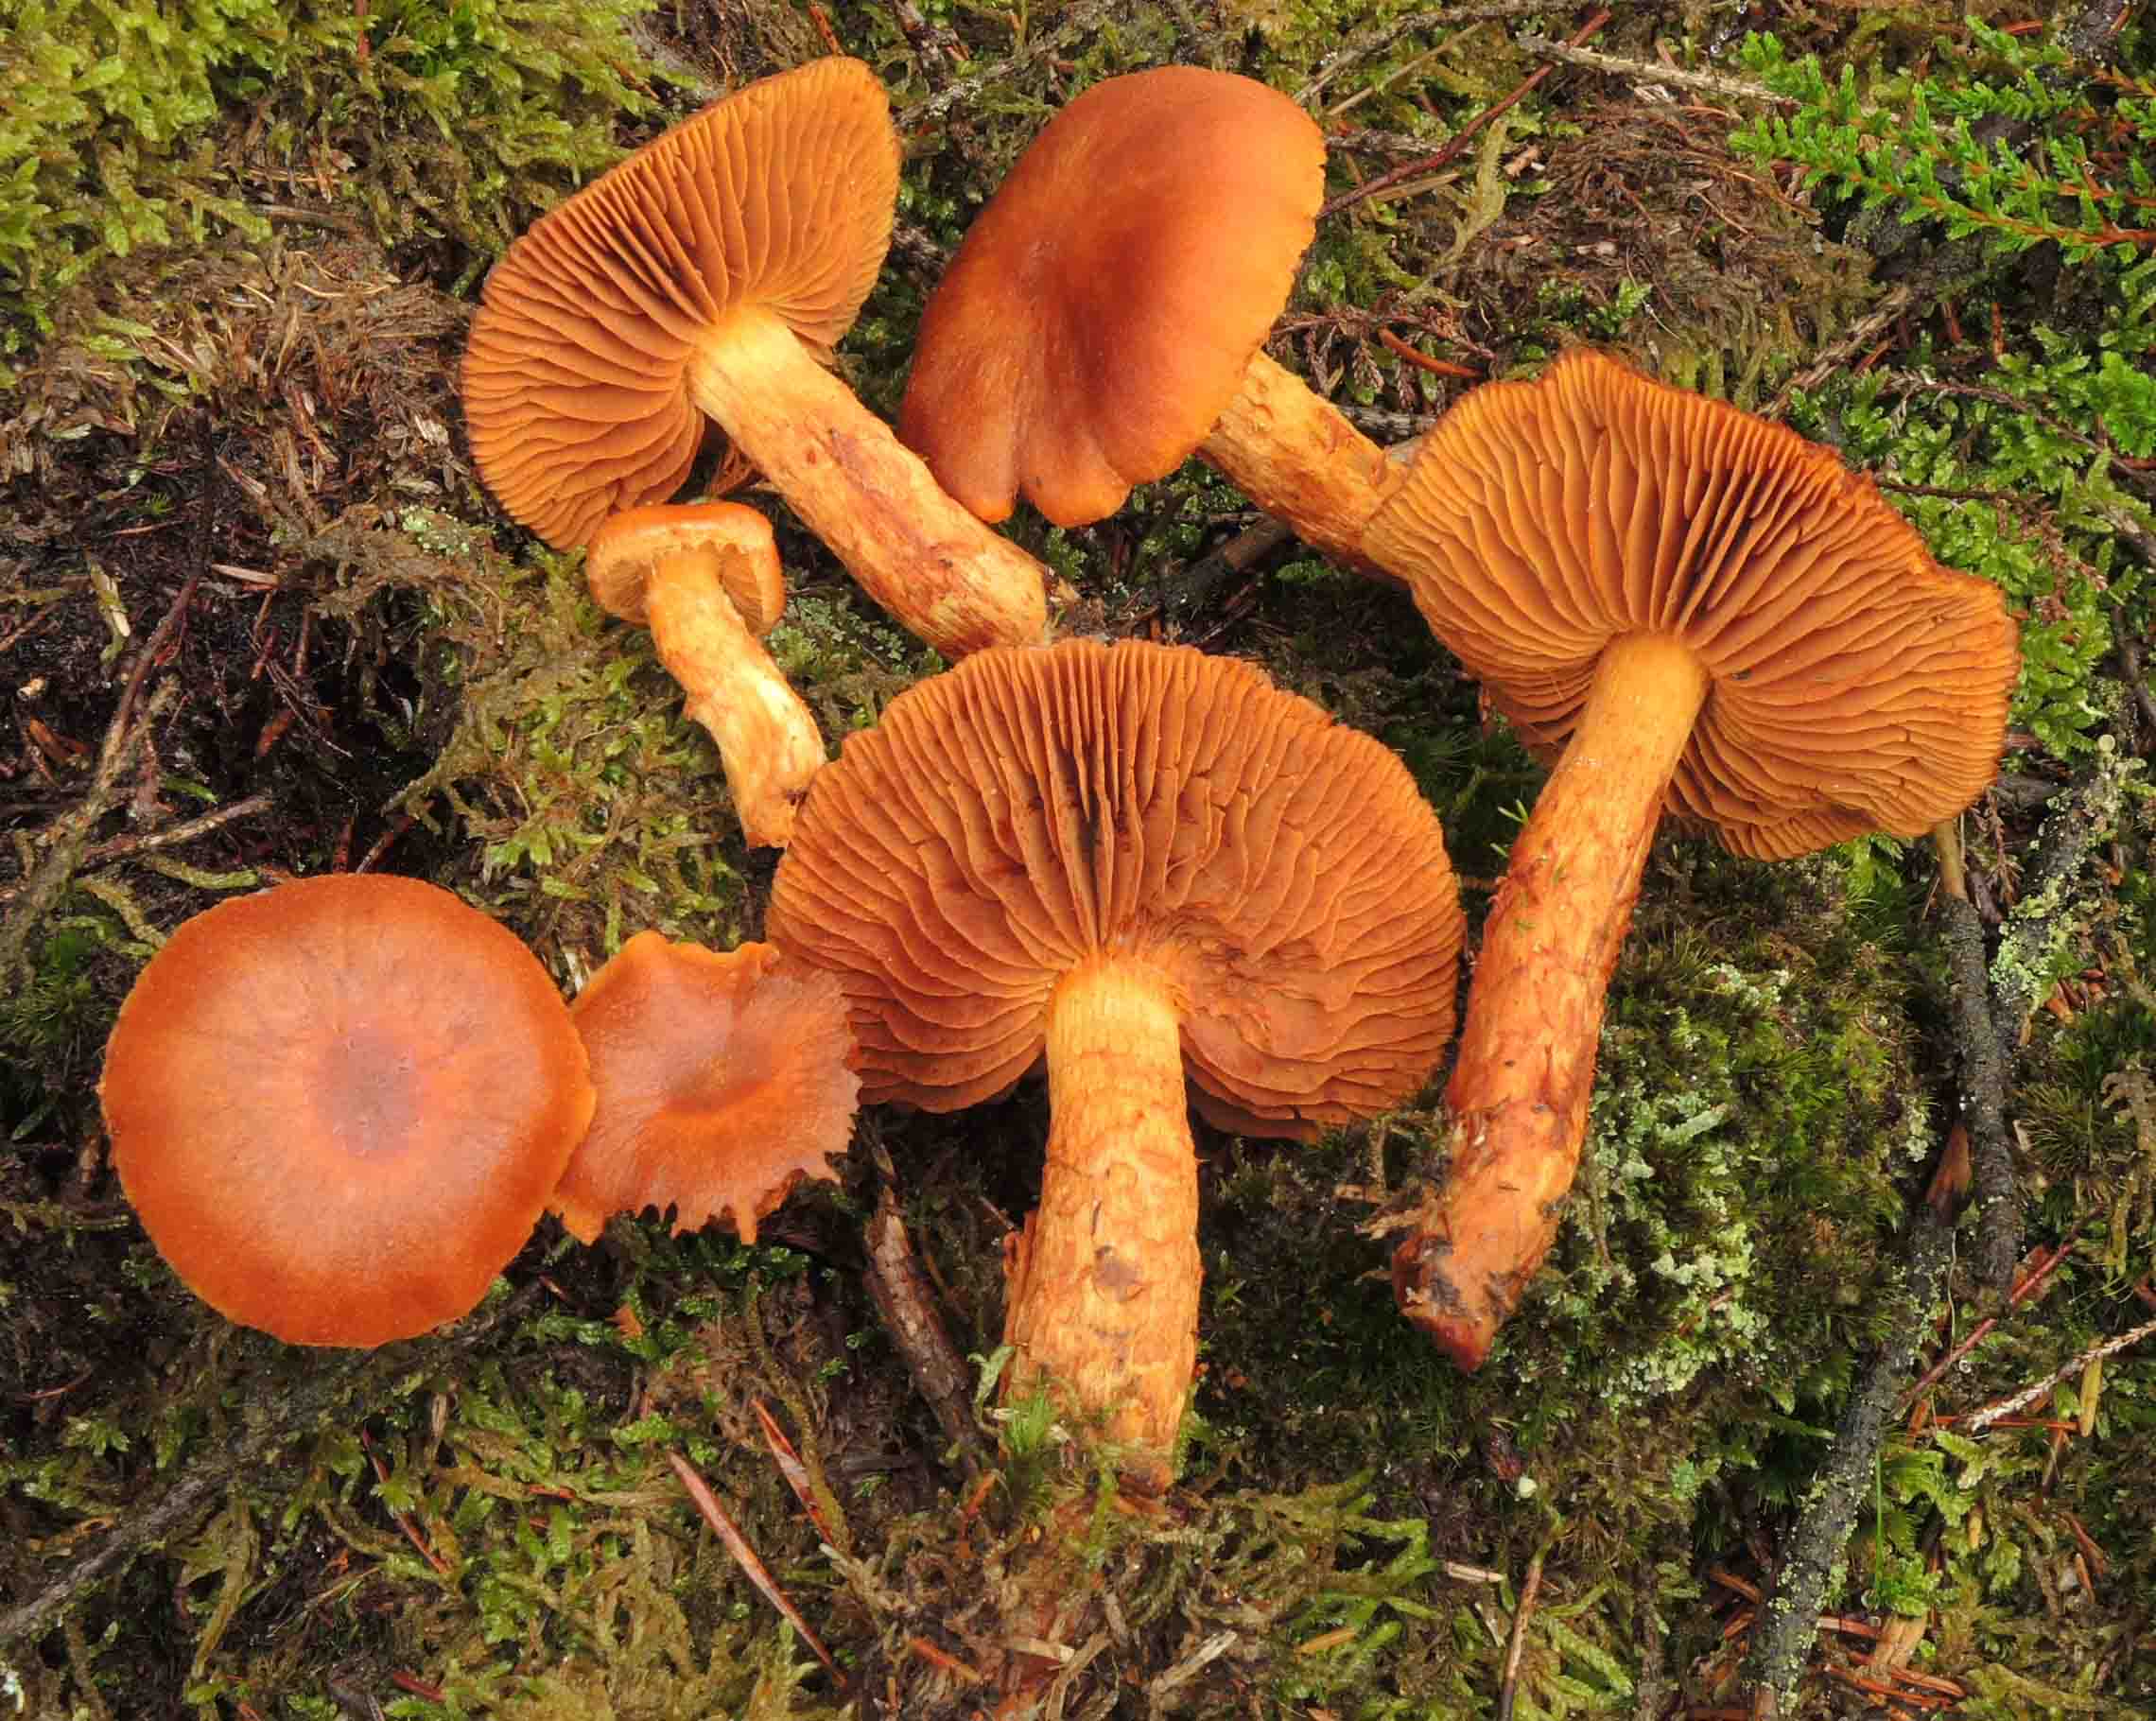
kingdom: Fungi
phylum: Basidiomycota
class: Agaricomycetes
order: Agaricales
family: Cortinariaceae
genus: Aureonarius
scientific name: Aureonarius limonius
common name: orangegul slørhat
